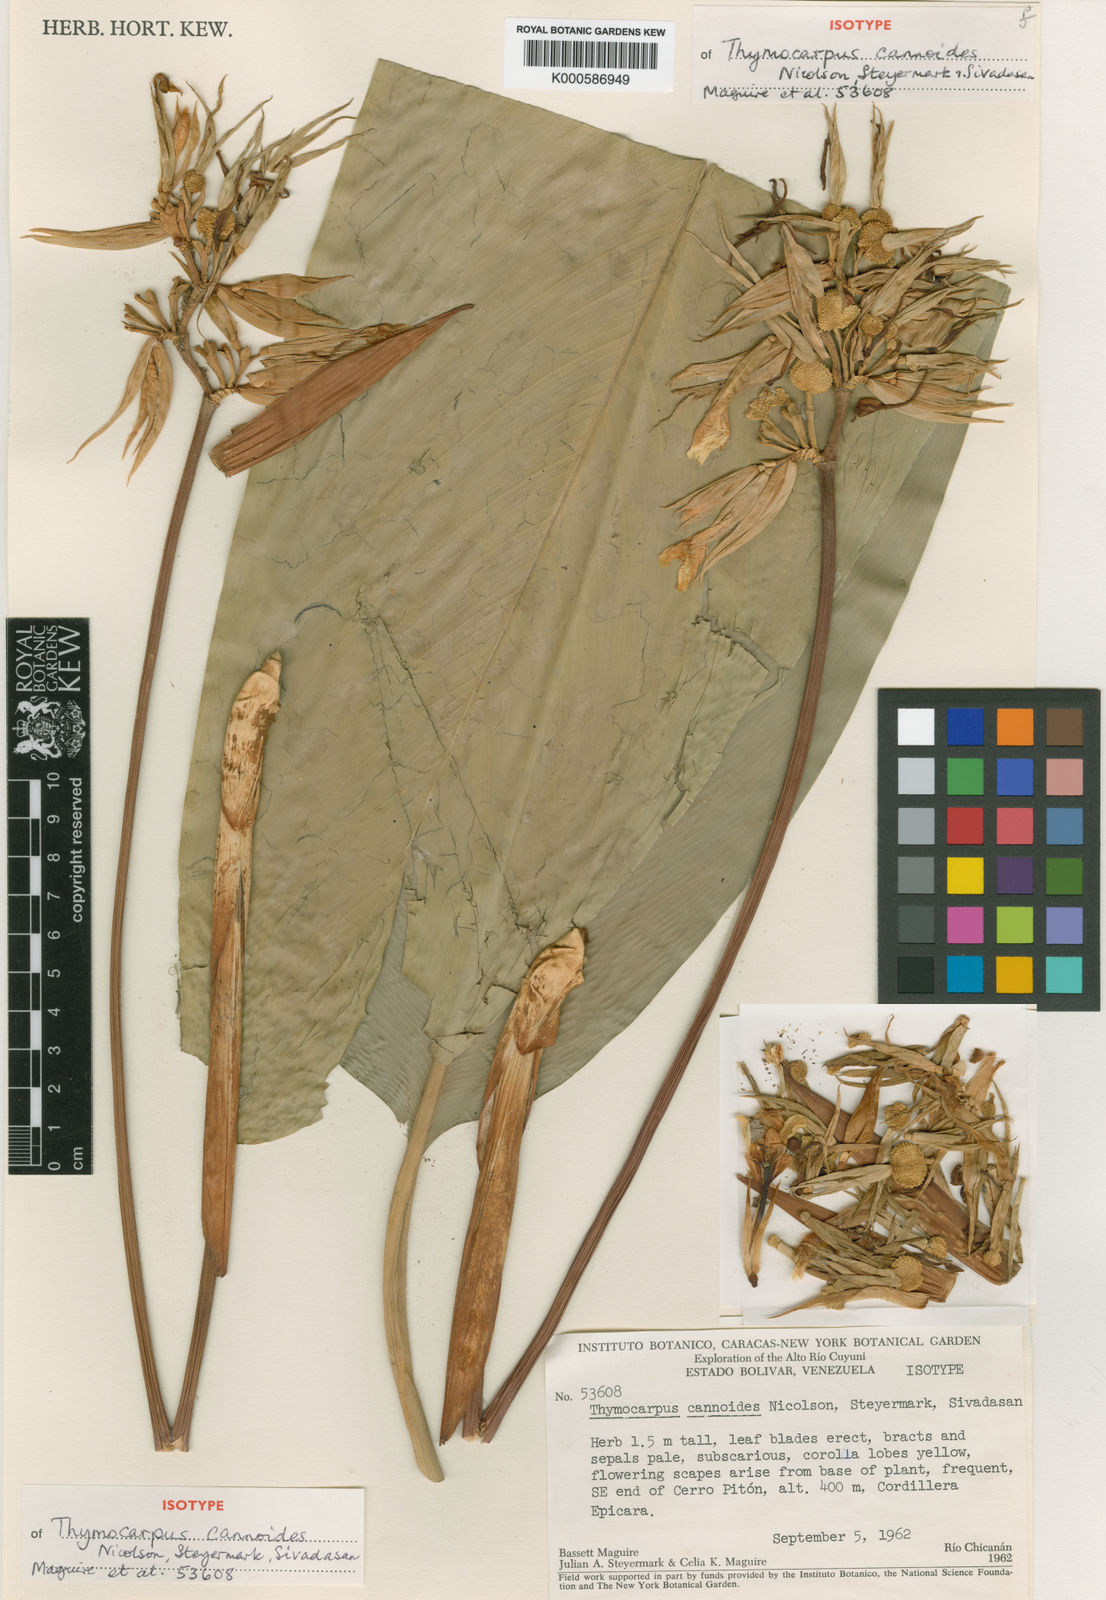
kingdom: Plantae
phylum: Tracheophyta
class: Liliopsida
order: Zingiberales
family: Marantaceae
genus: Goeppertia
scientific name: Goeppertia cannoides
